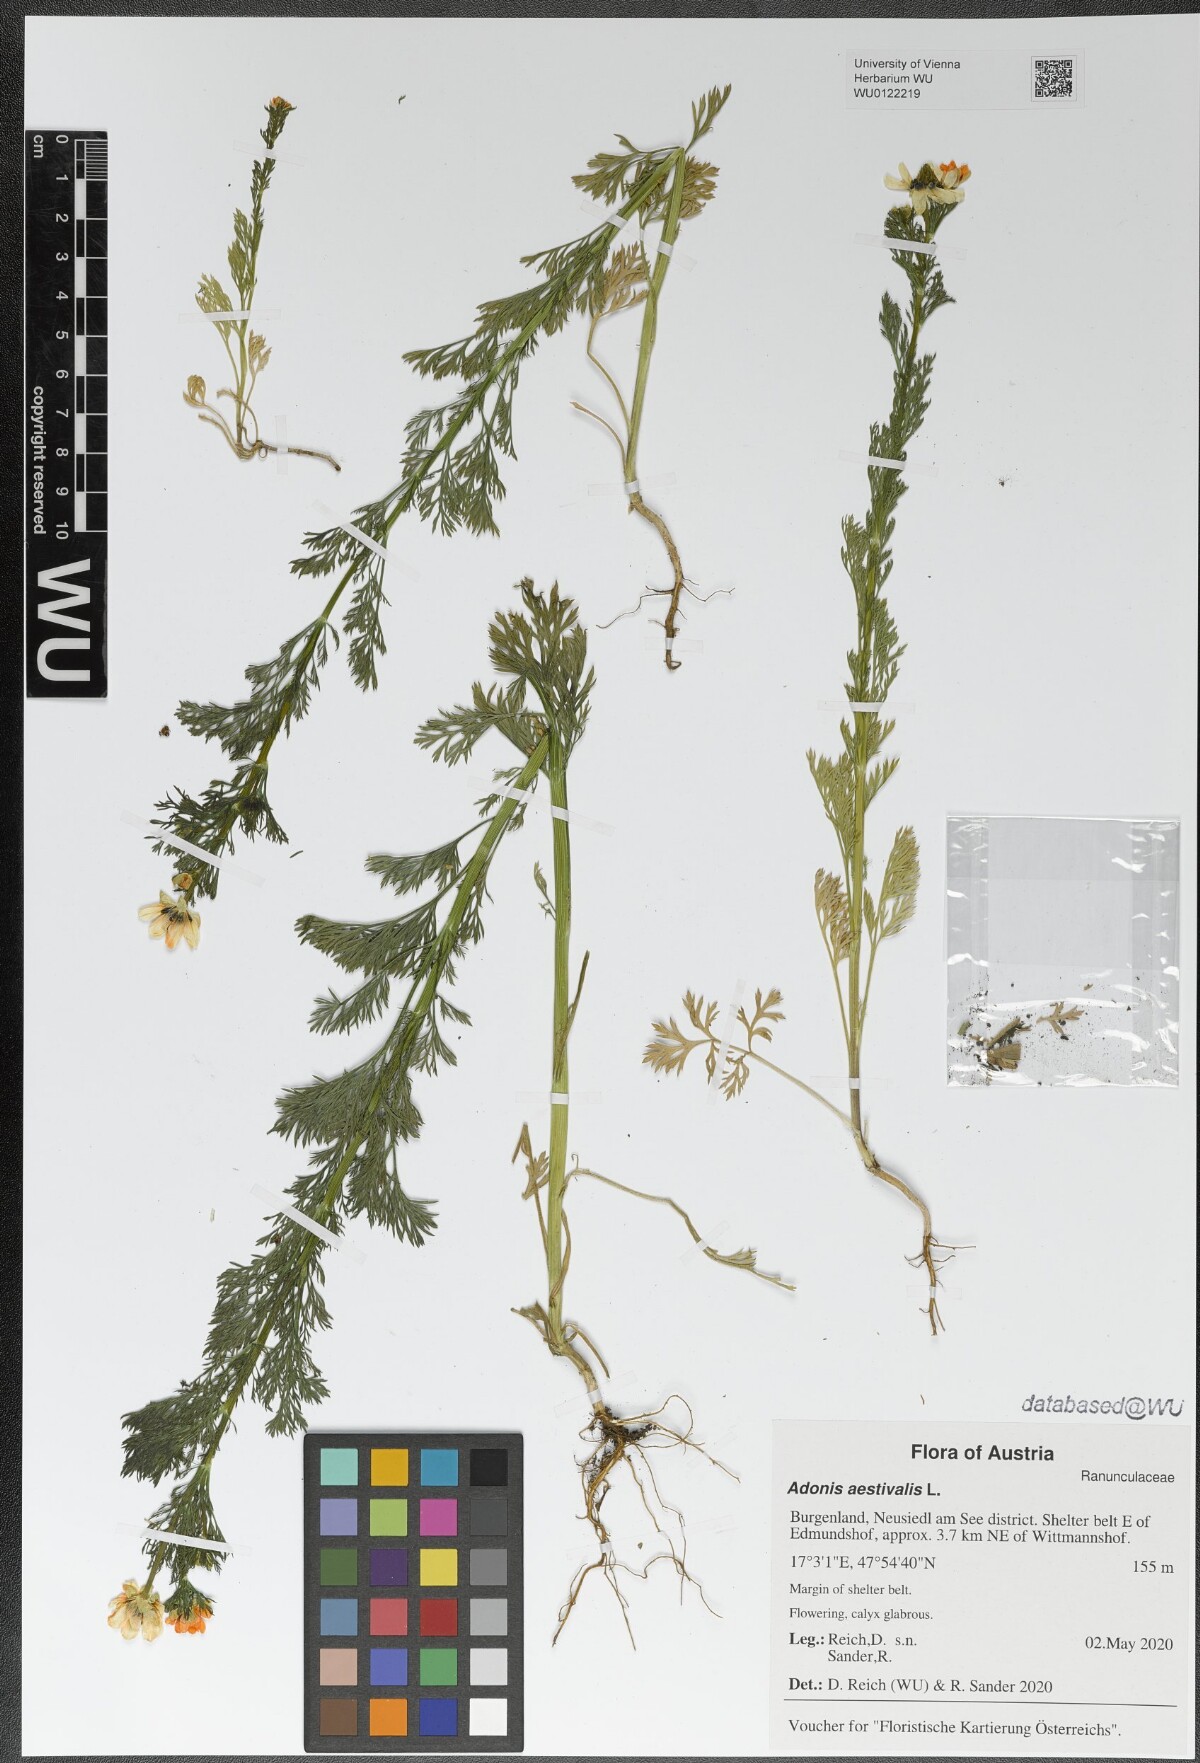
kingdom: Plantae
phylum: Tracheophyta
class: Magnoliopsida
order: Ranunculales
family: Ranunculaceae
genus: Adonis
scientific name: Adonis aestivalis
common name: Summer pheasant's-eye
